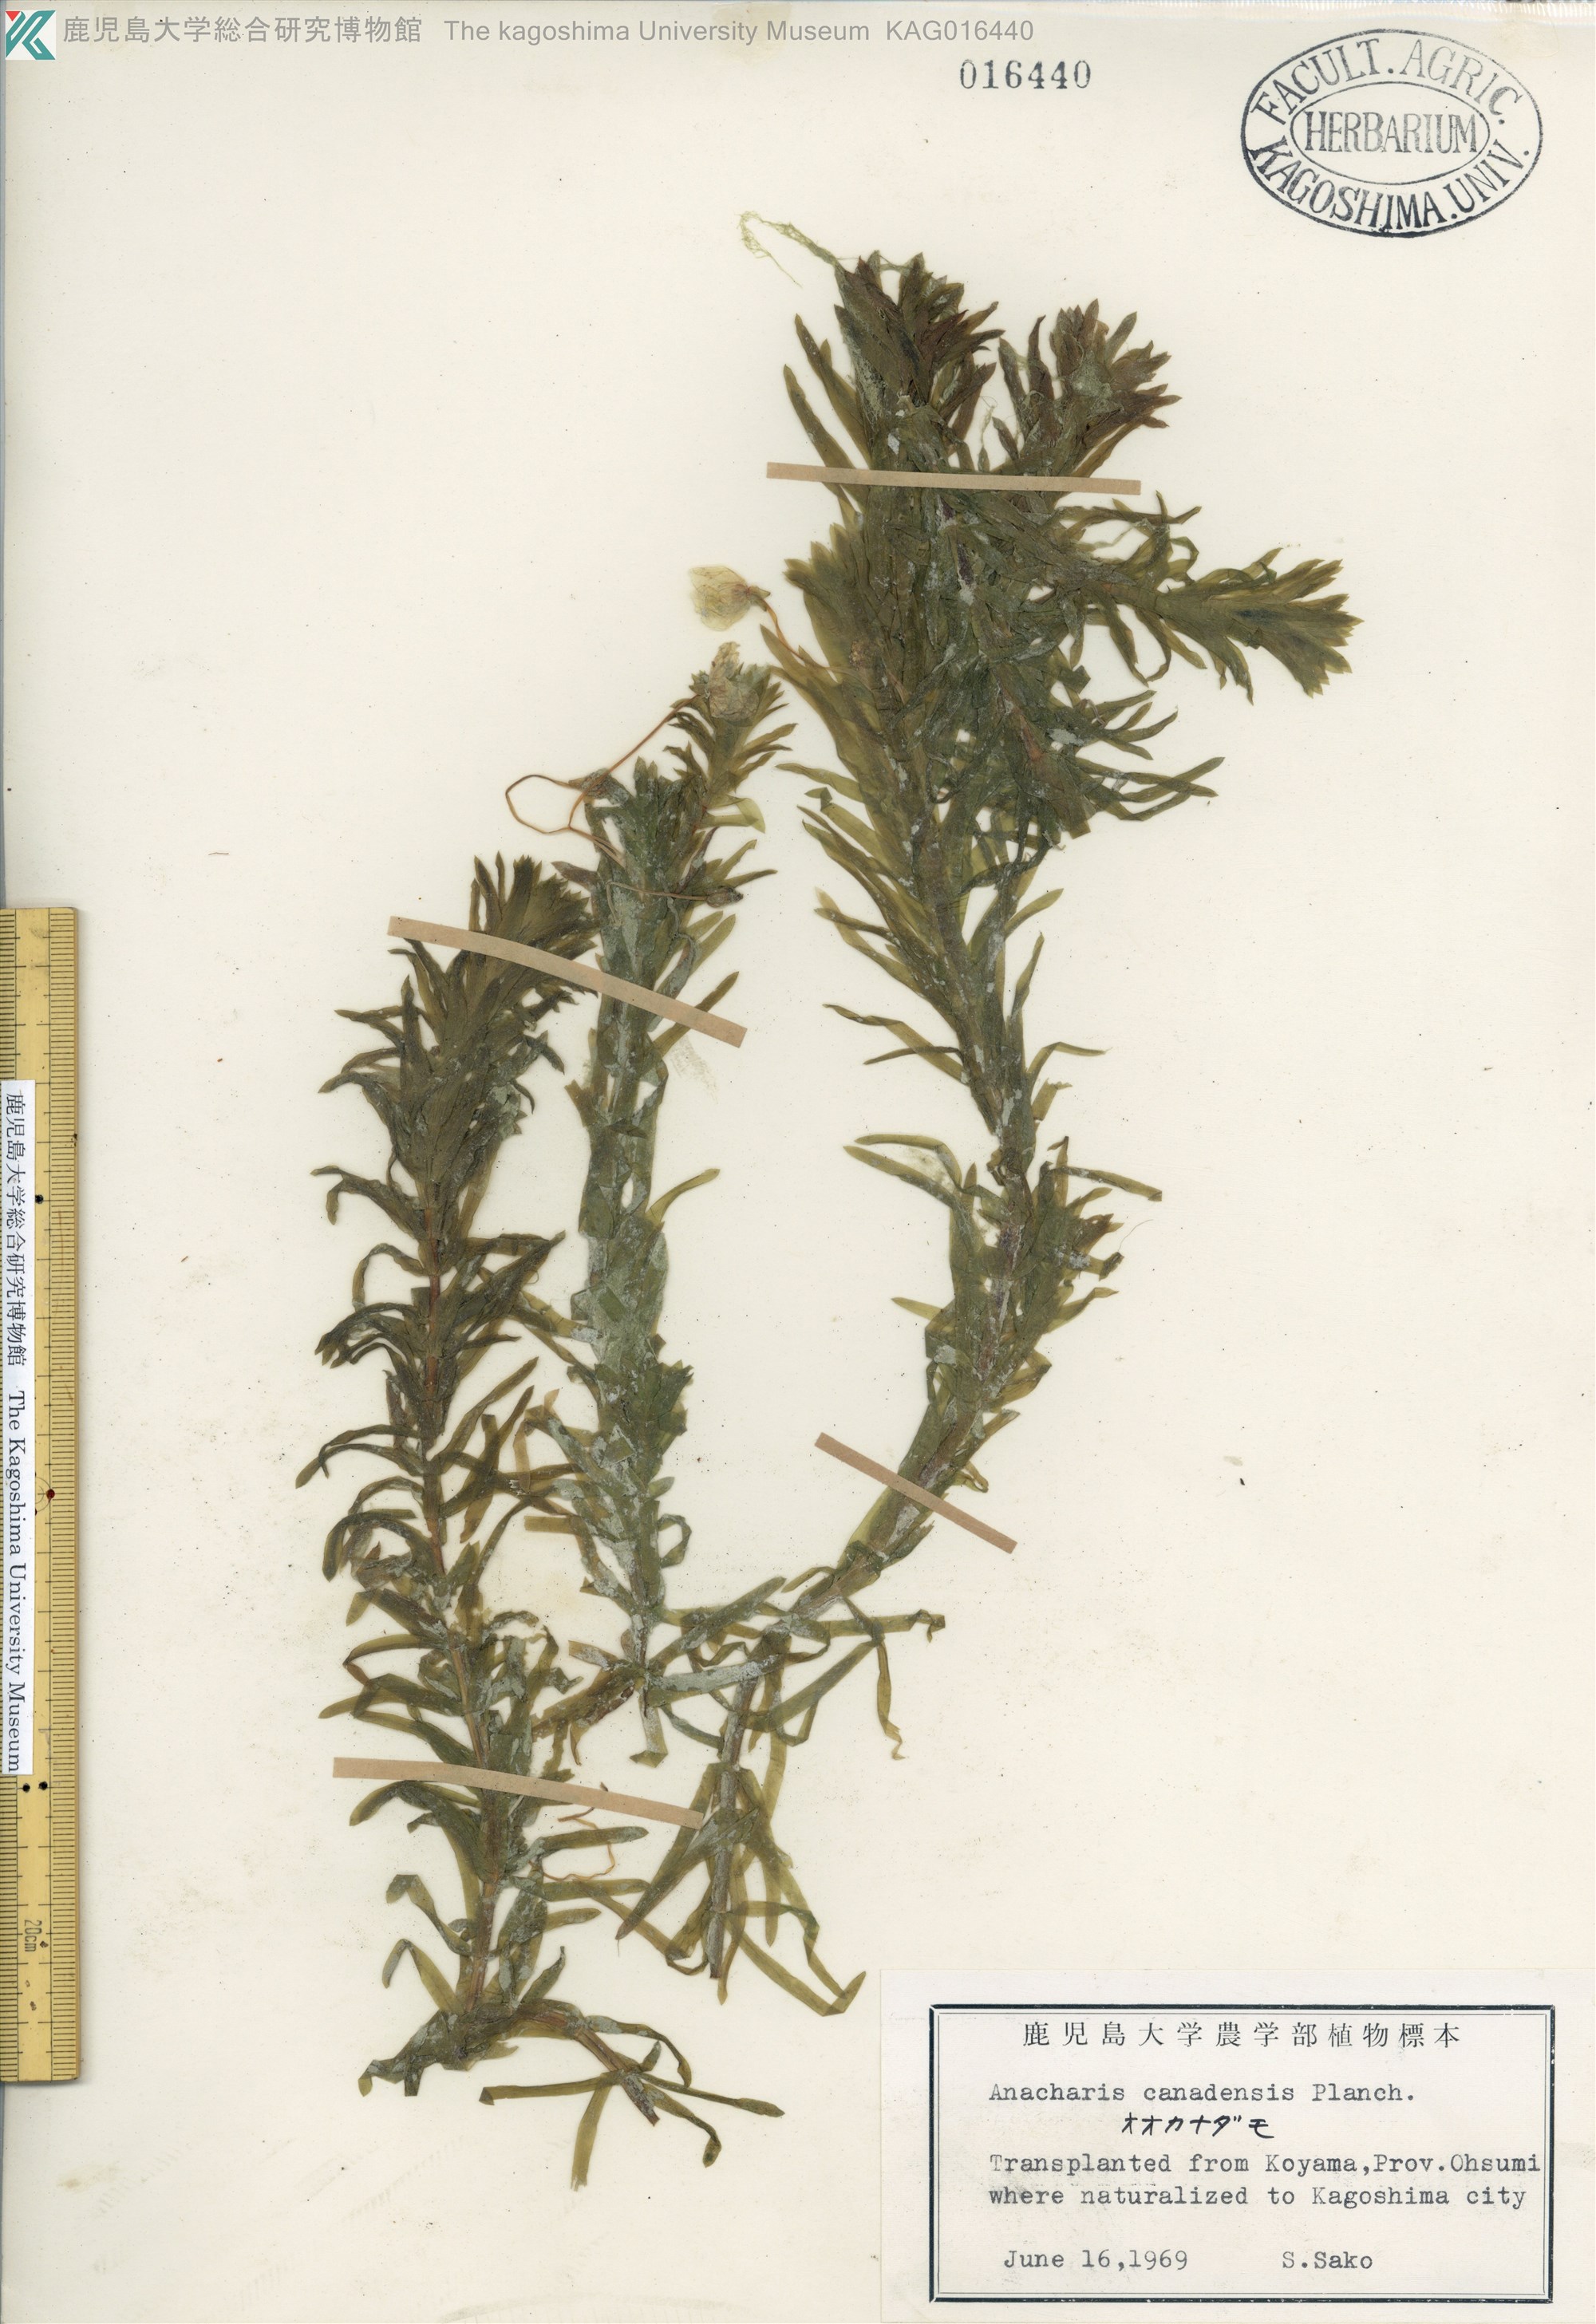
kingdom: Plantae
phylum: Tracheophyta
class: Liliopsida
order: Alismatales
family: Hydrocharitaceae
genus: Elodea
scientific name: Elodea densa
